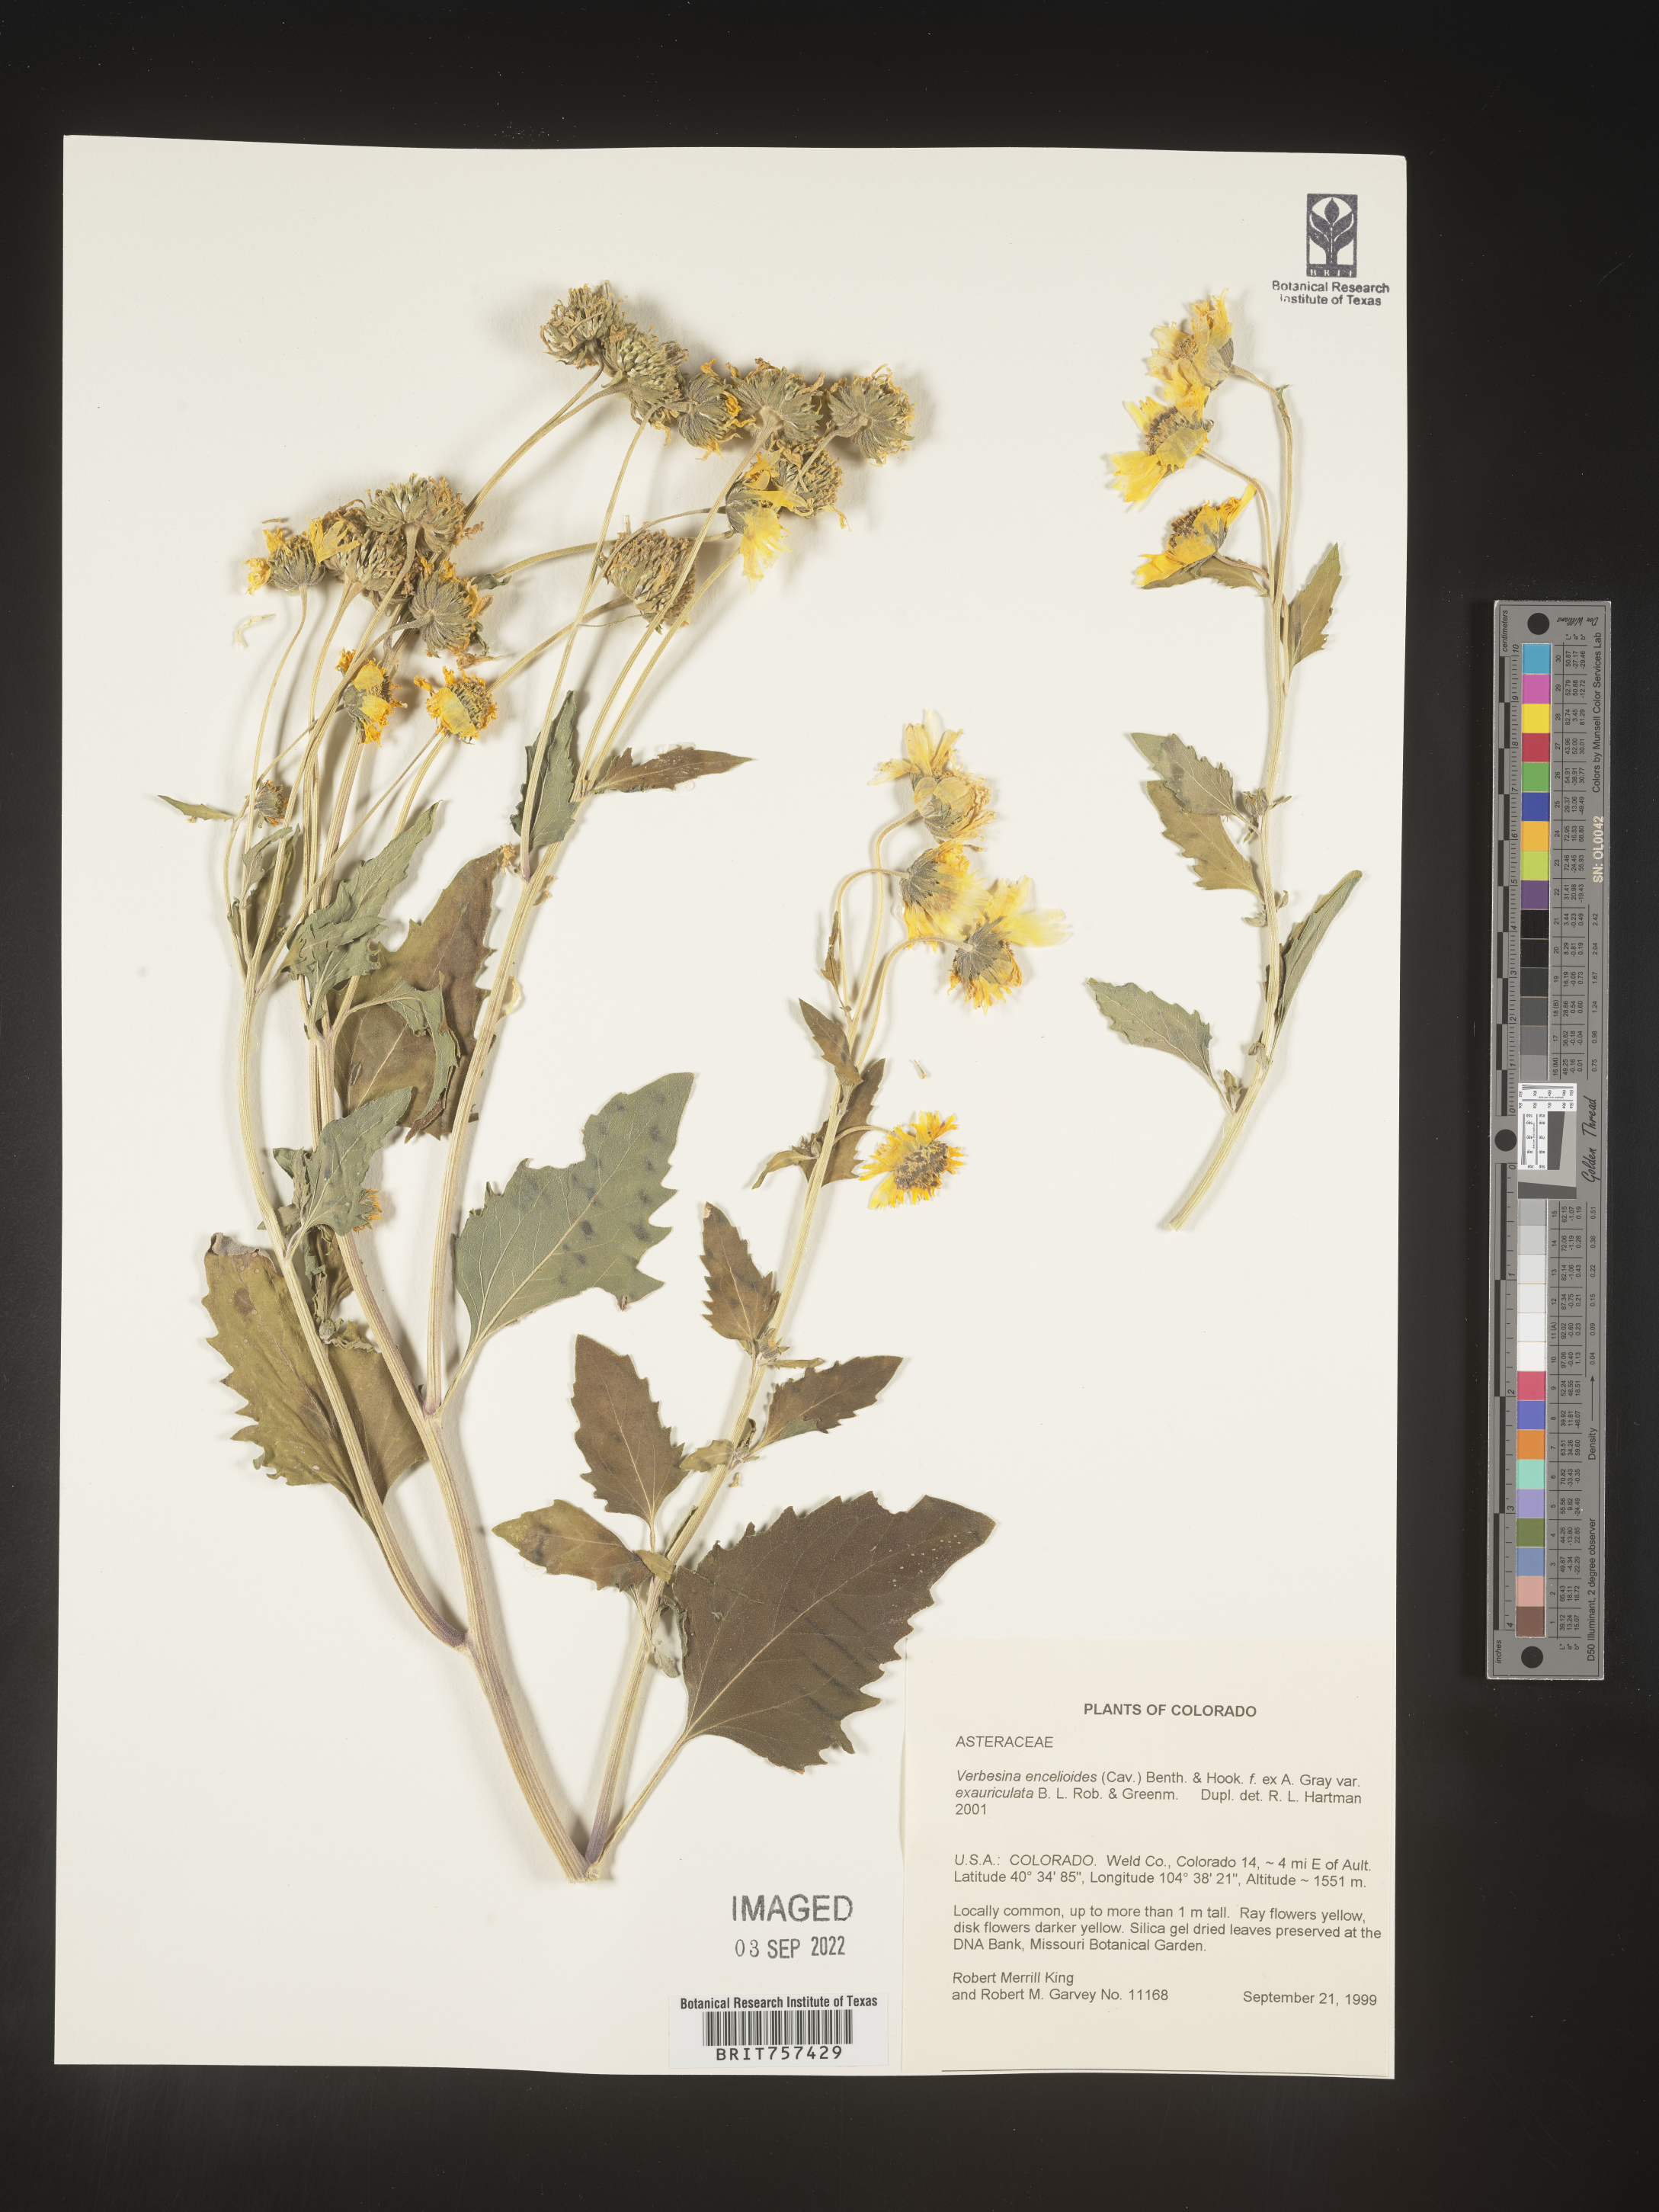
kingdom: Plantae
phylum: Tracheophyta
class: Magnoliopsida
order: Asterales
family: Asteraceae
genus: Verbesina
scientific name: Verbesina encelioides
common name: Golden crownbeard
